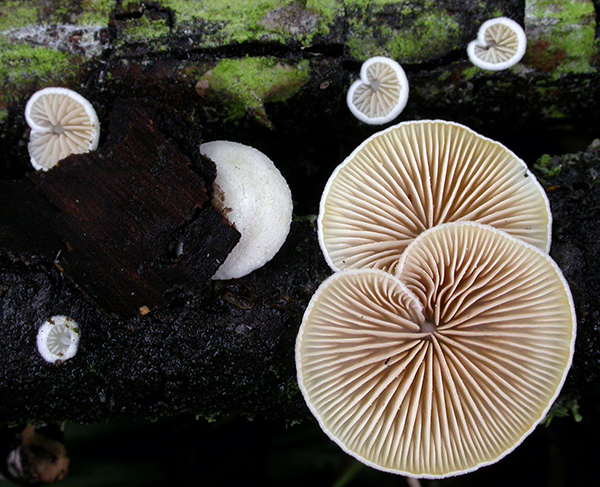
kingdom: Fungi
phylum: Basidiomycota
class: Agaricomycetes
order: Agaricales
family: Crepidotaceae
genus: Crepidotus
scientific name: Crepidotus cesatii
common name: almindelig muslingesvamp
